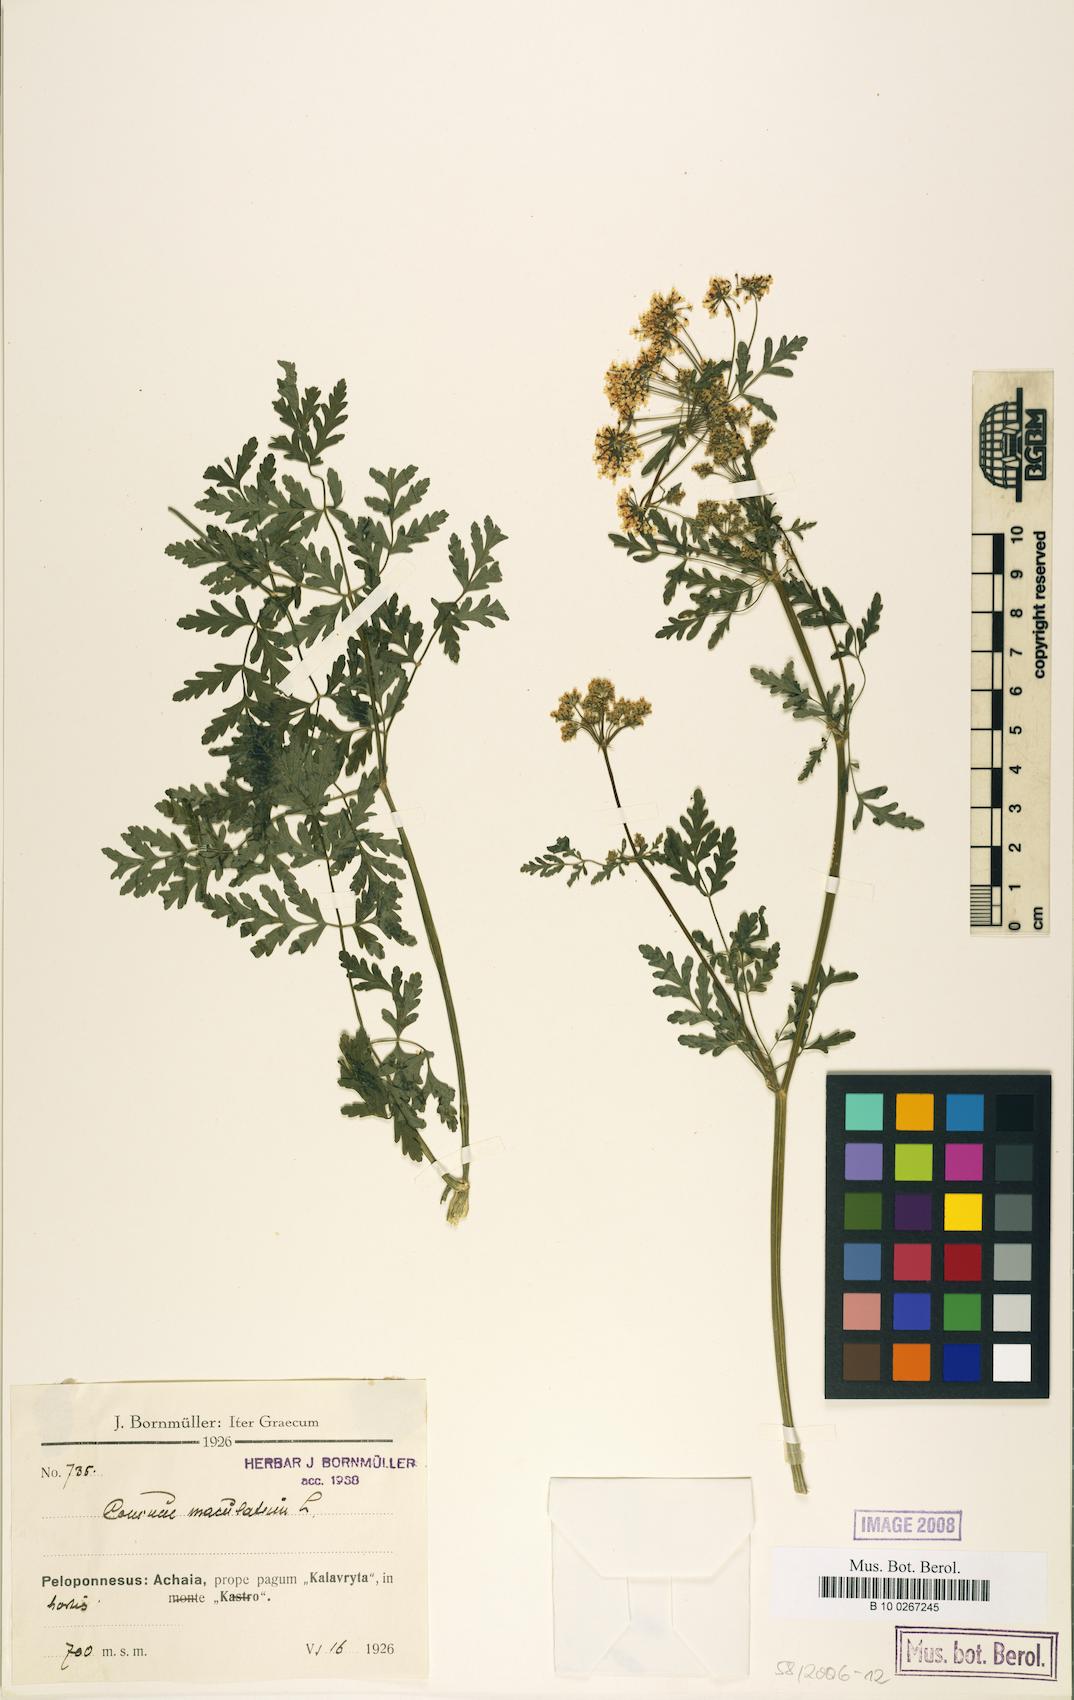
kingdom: Plantae
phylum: Tracheophyta
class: Magnoliopsida
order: Apiales
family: Apiaceae
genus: Conium
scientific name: Conium maculatum
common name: Hemlock
